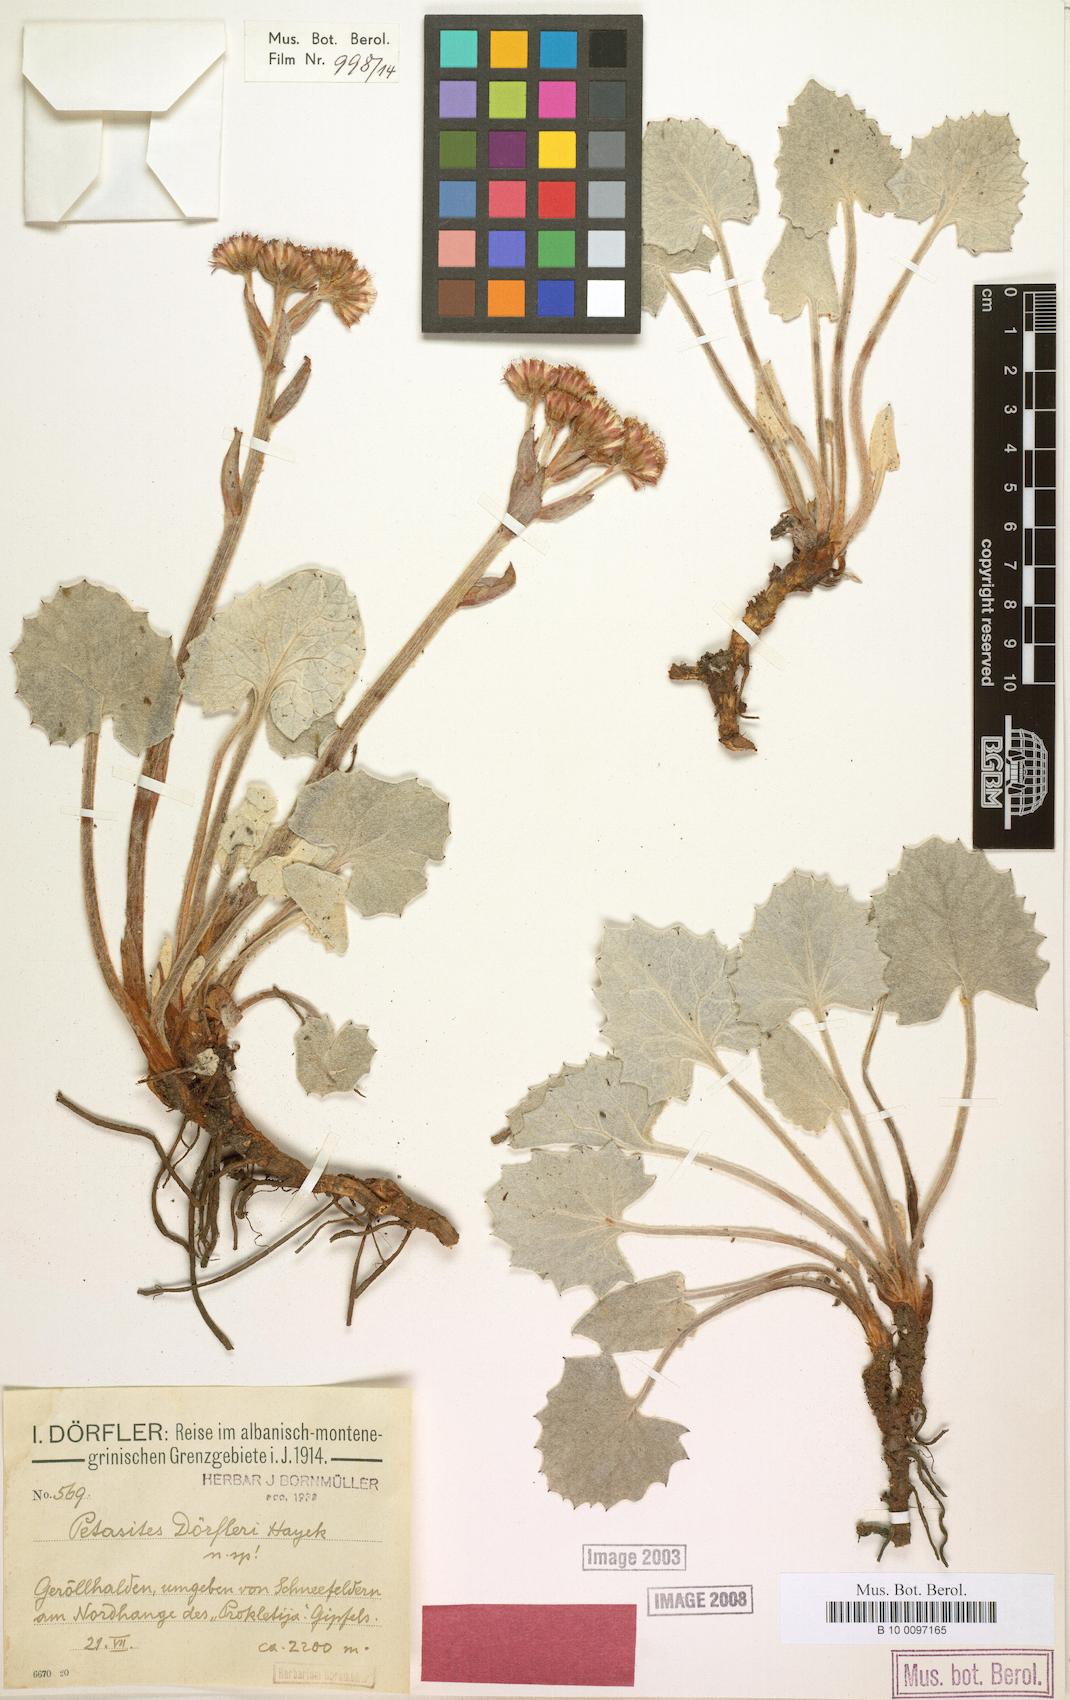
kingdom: Plantae
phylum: Tracheophyta
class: Magnoliopsida
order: Asterales
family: Asteraceae
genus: Petasites
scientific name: Petasites doerfleri
